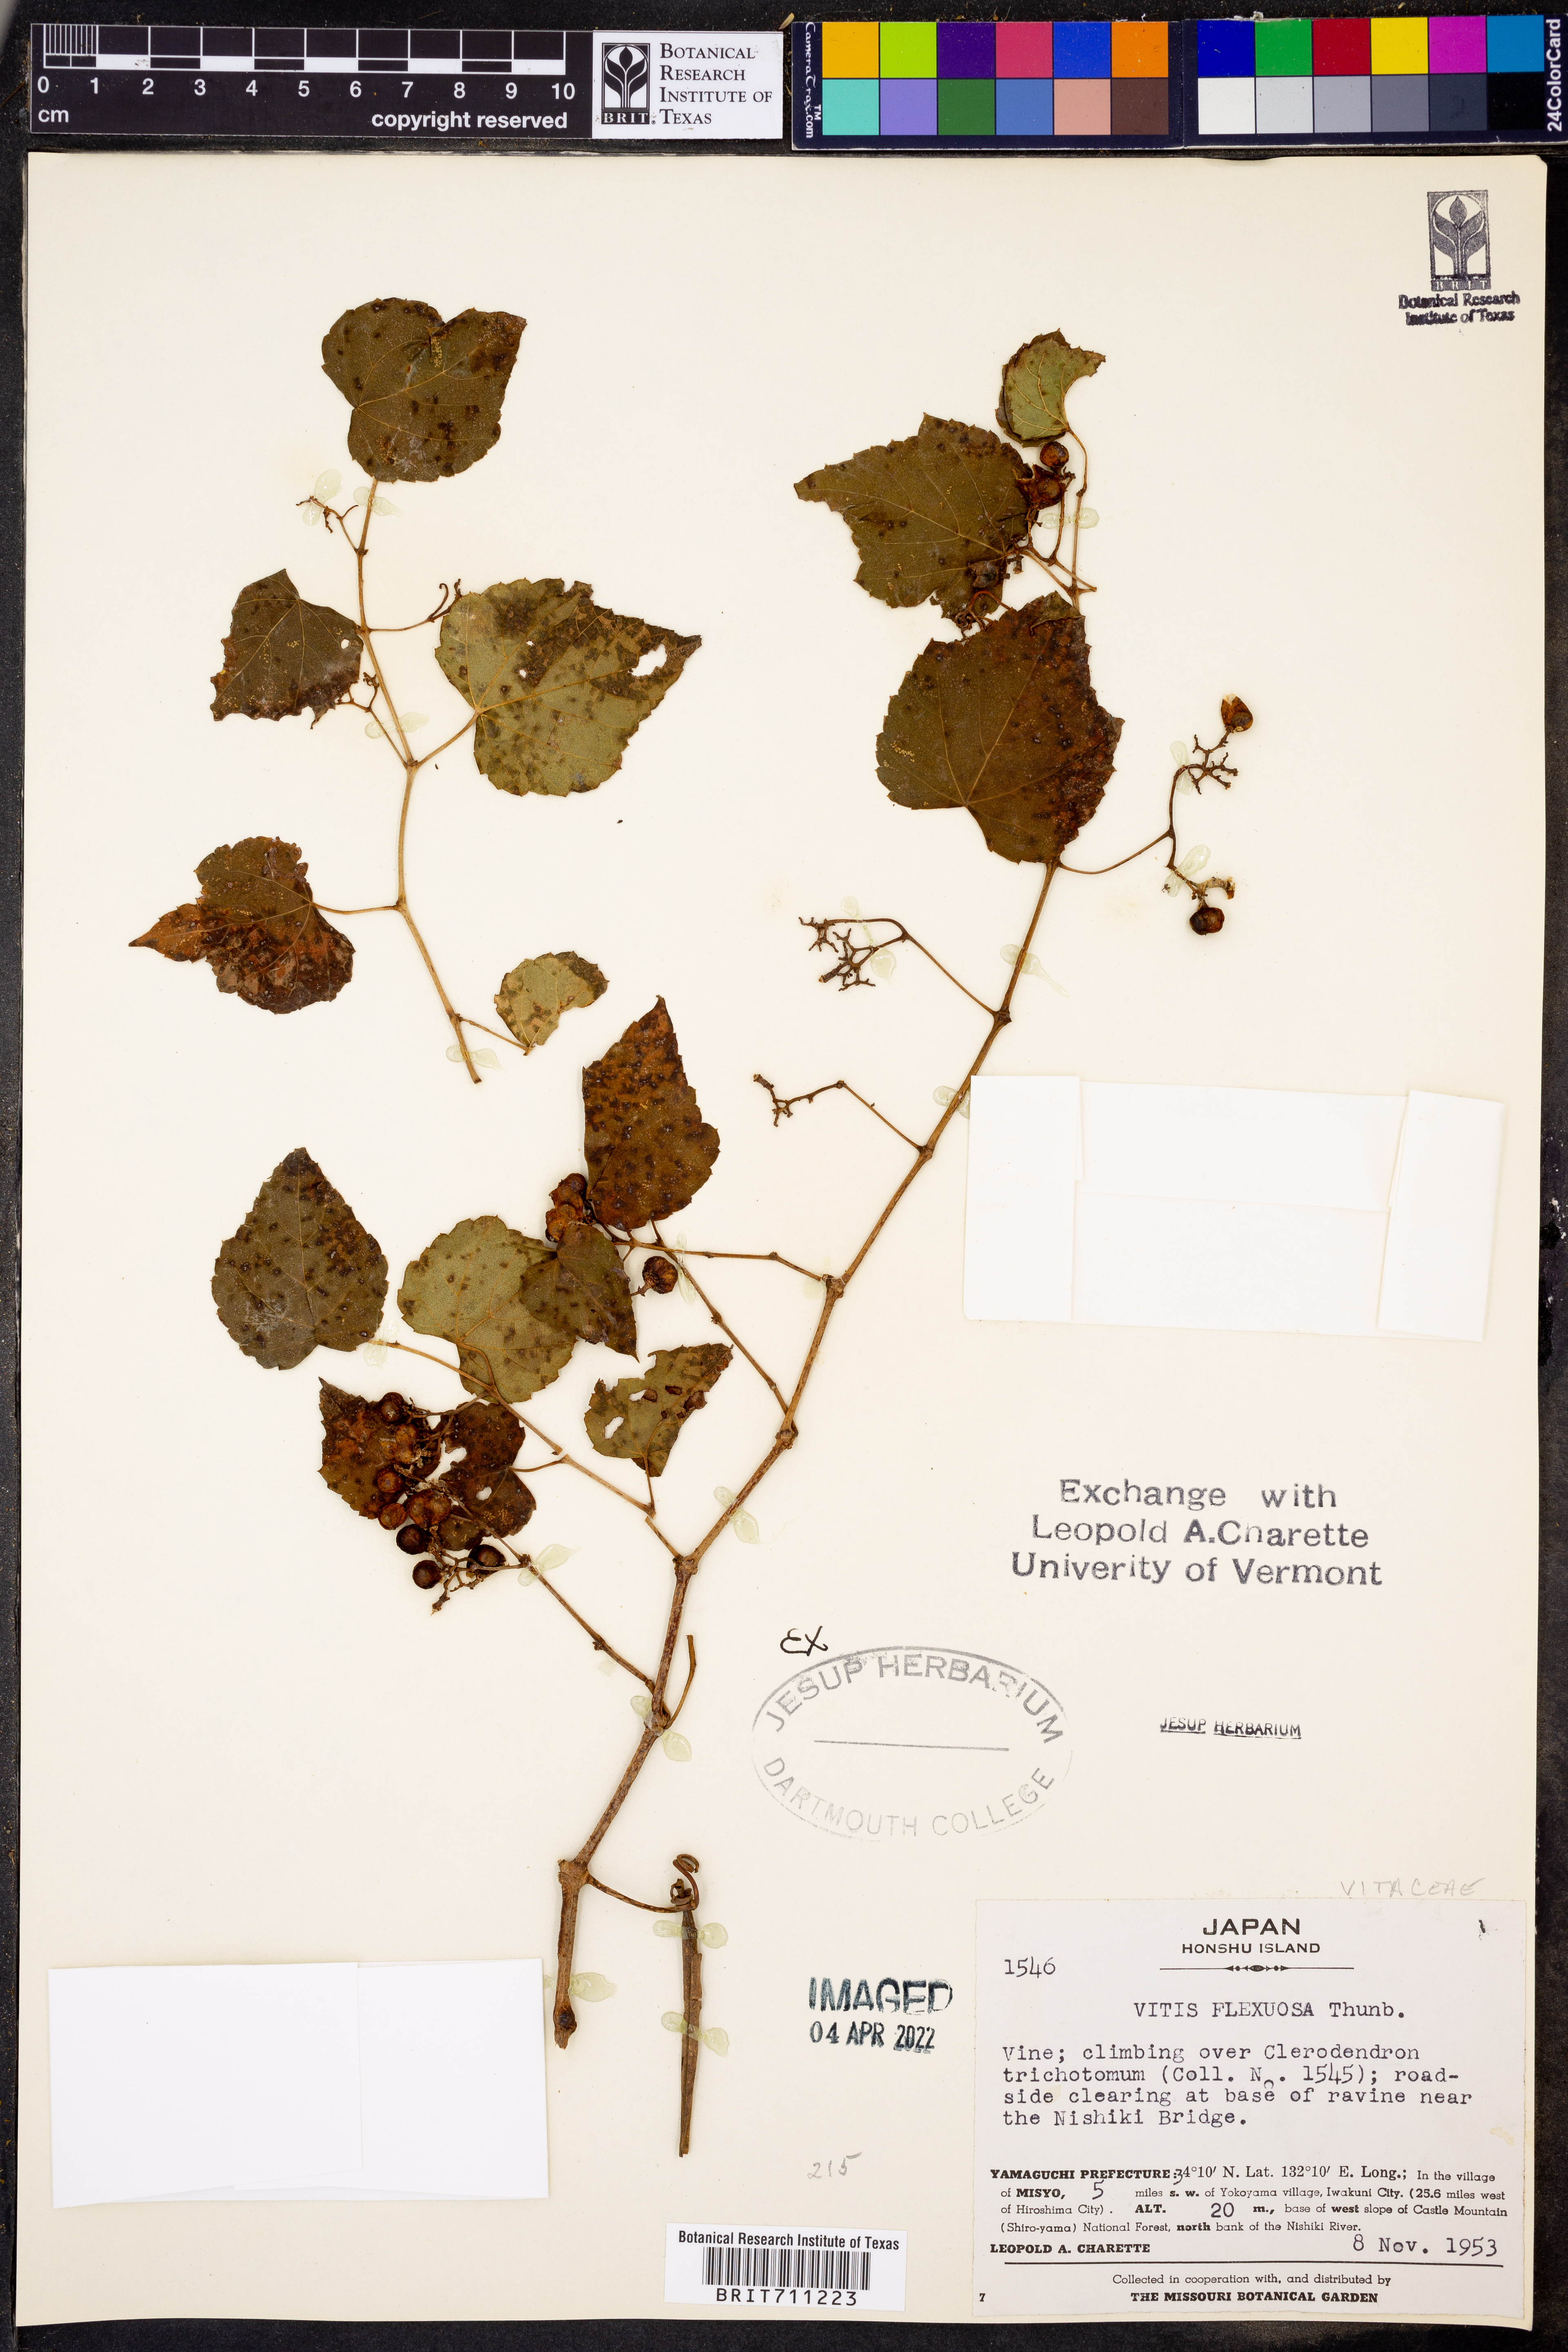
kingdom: Plantae
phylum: Tracheophyta
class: Magnoliopsida
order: Vitales
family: Vitaceae
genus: Vitis
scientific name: Vitis flexuosa
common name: Creeping grape
